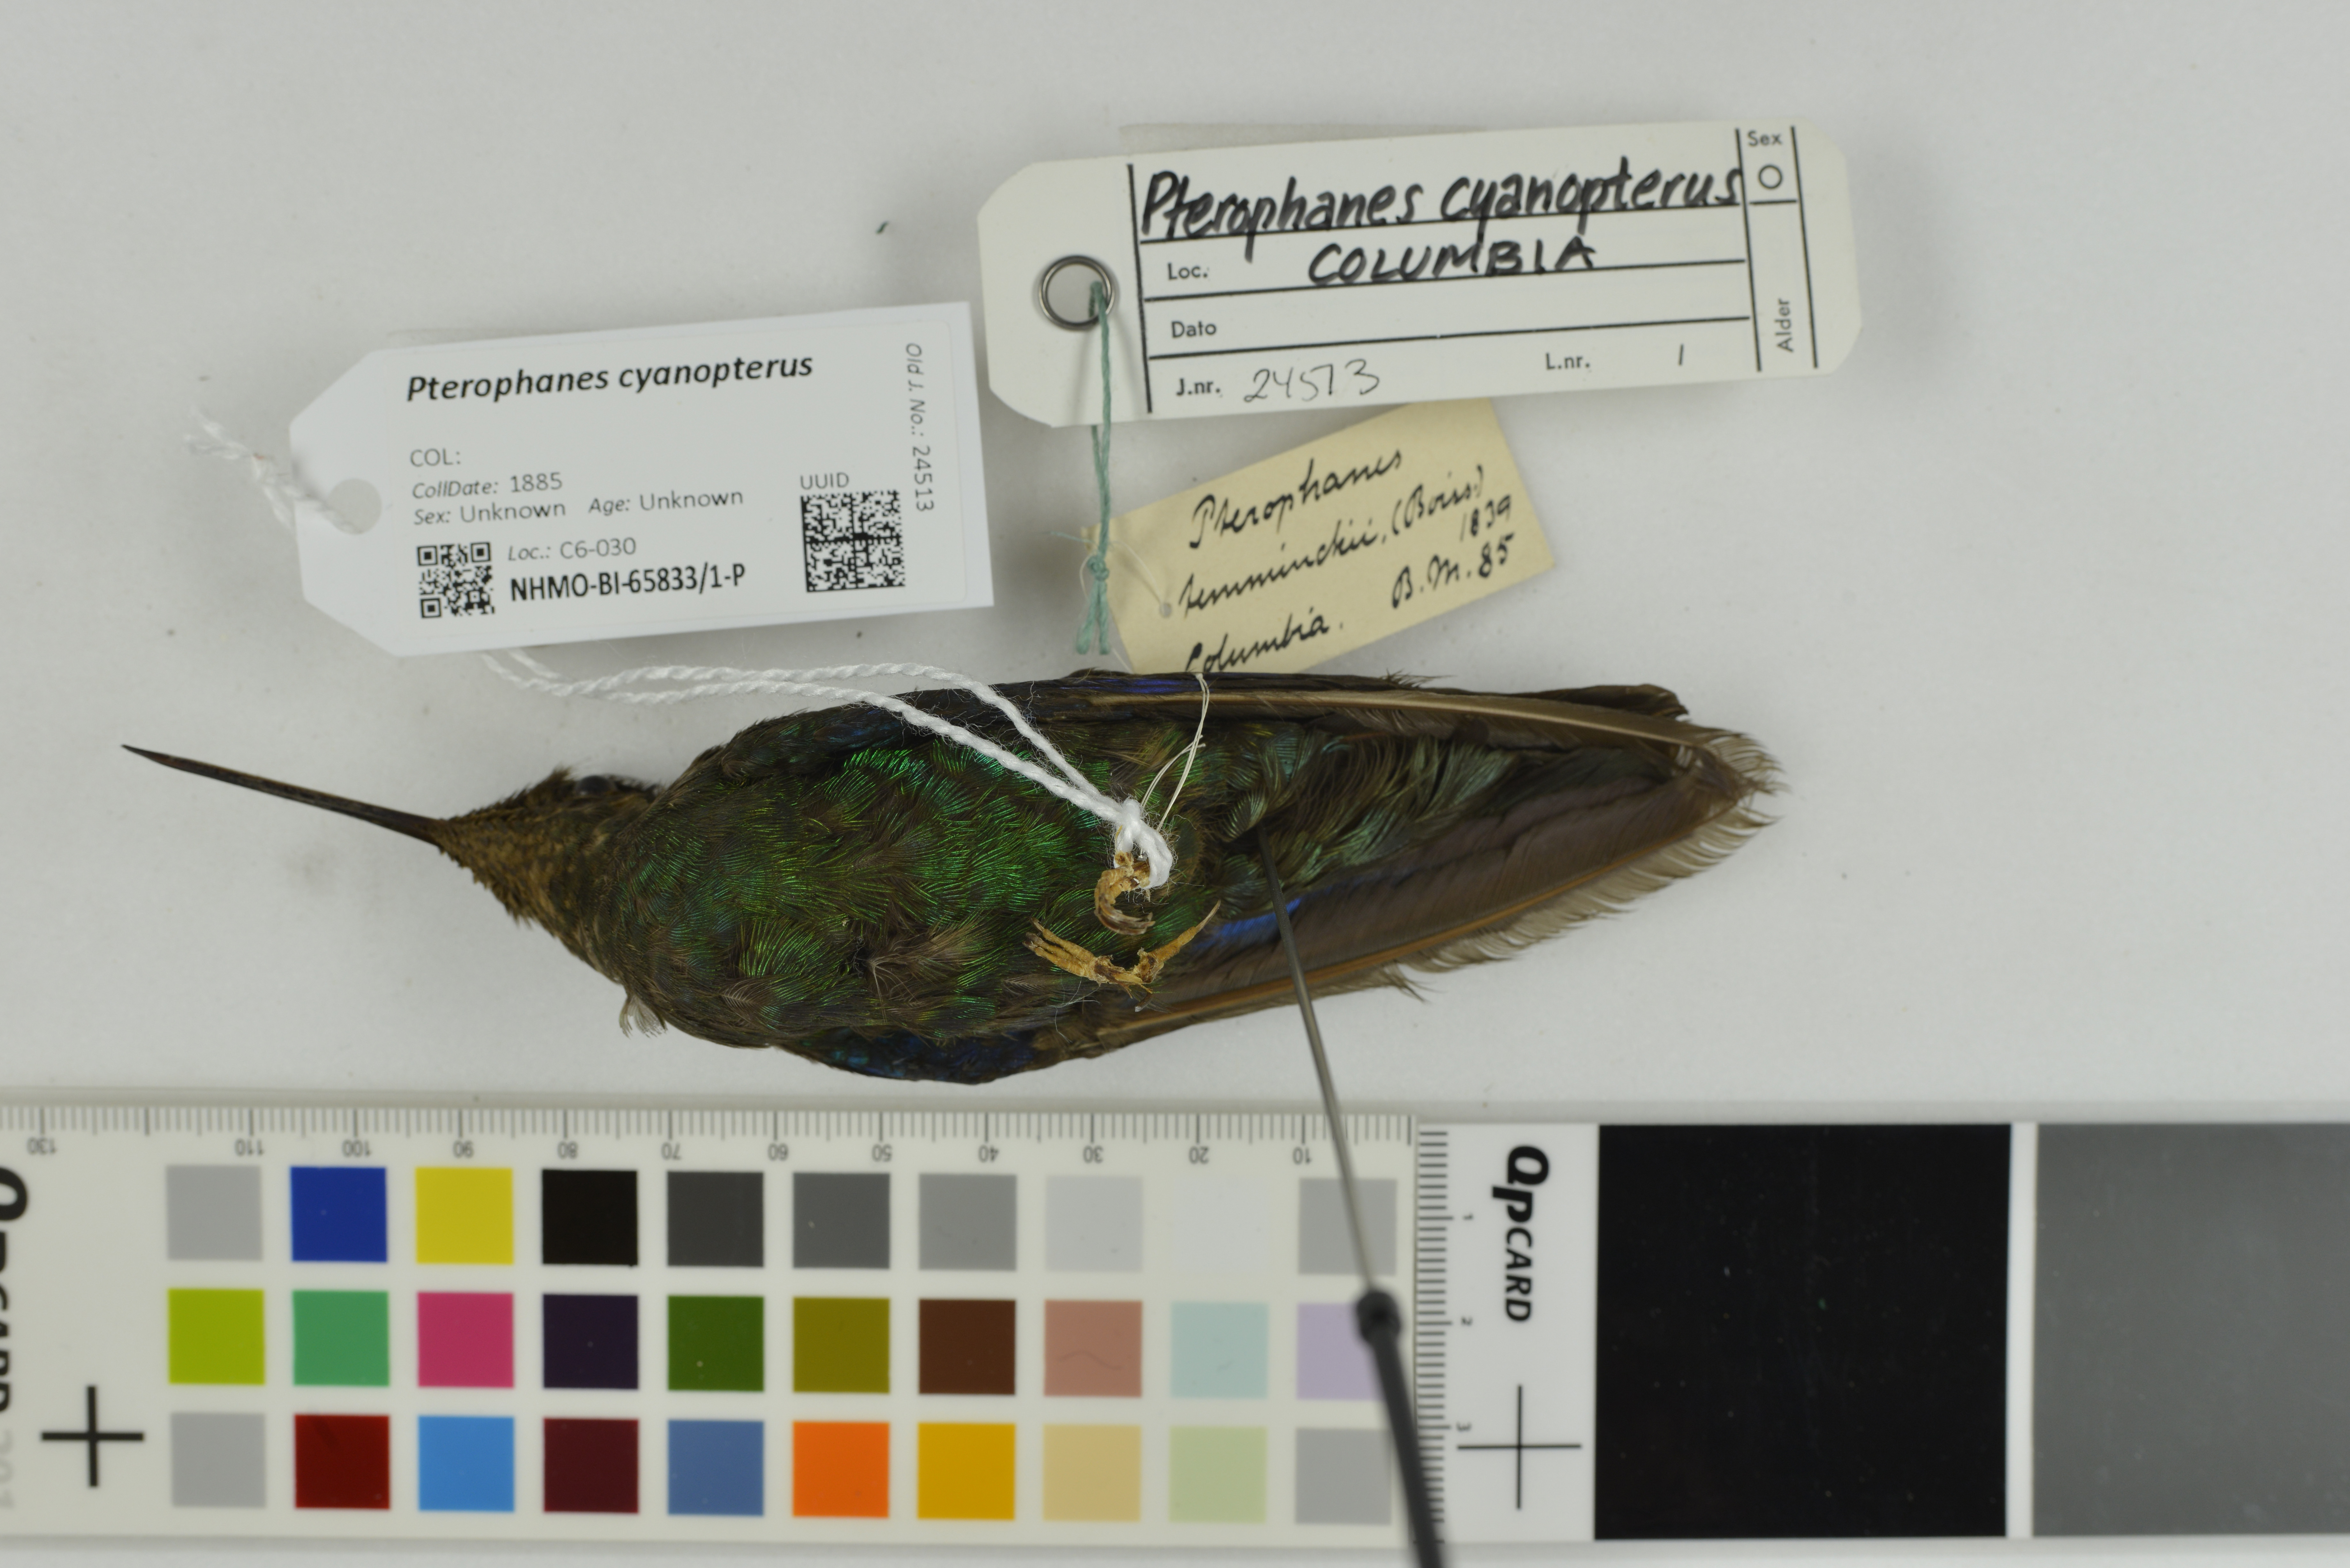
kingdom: Animalia
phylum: Chordata
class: Aves
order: Apodiformes
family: Trochilidae
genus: Pterophanes
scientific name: Pterophanes cyanopterus
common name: Great sapphirewing
